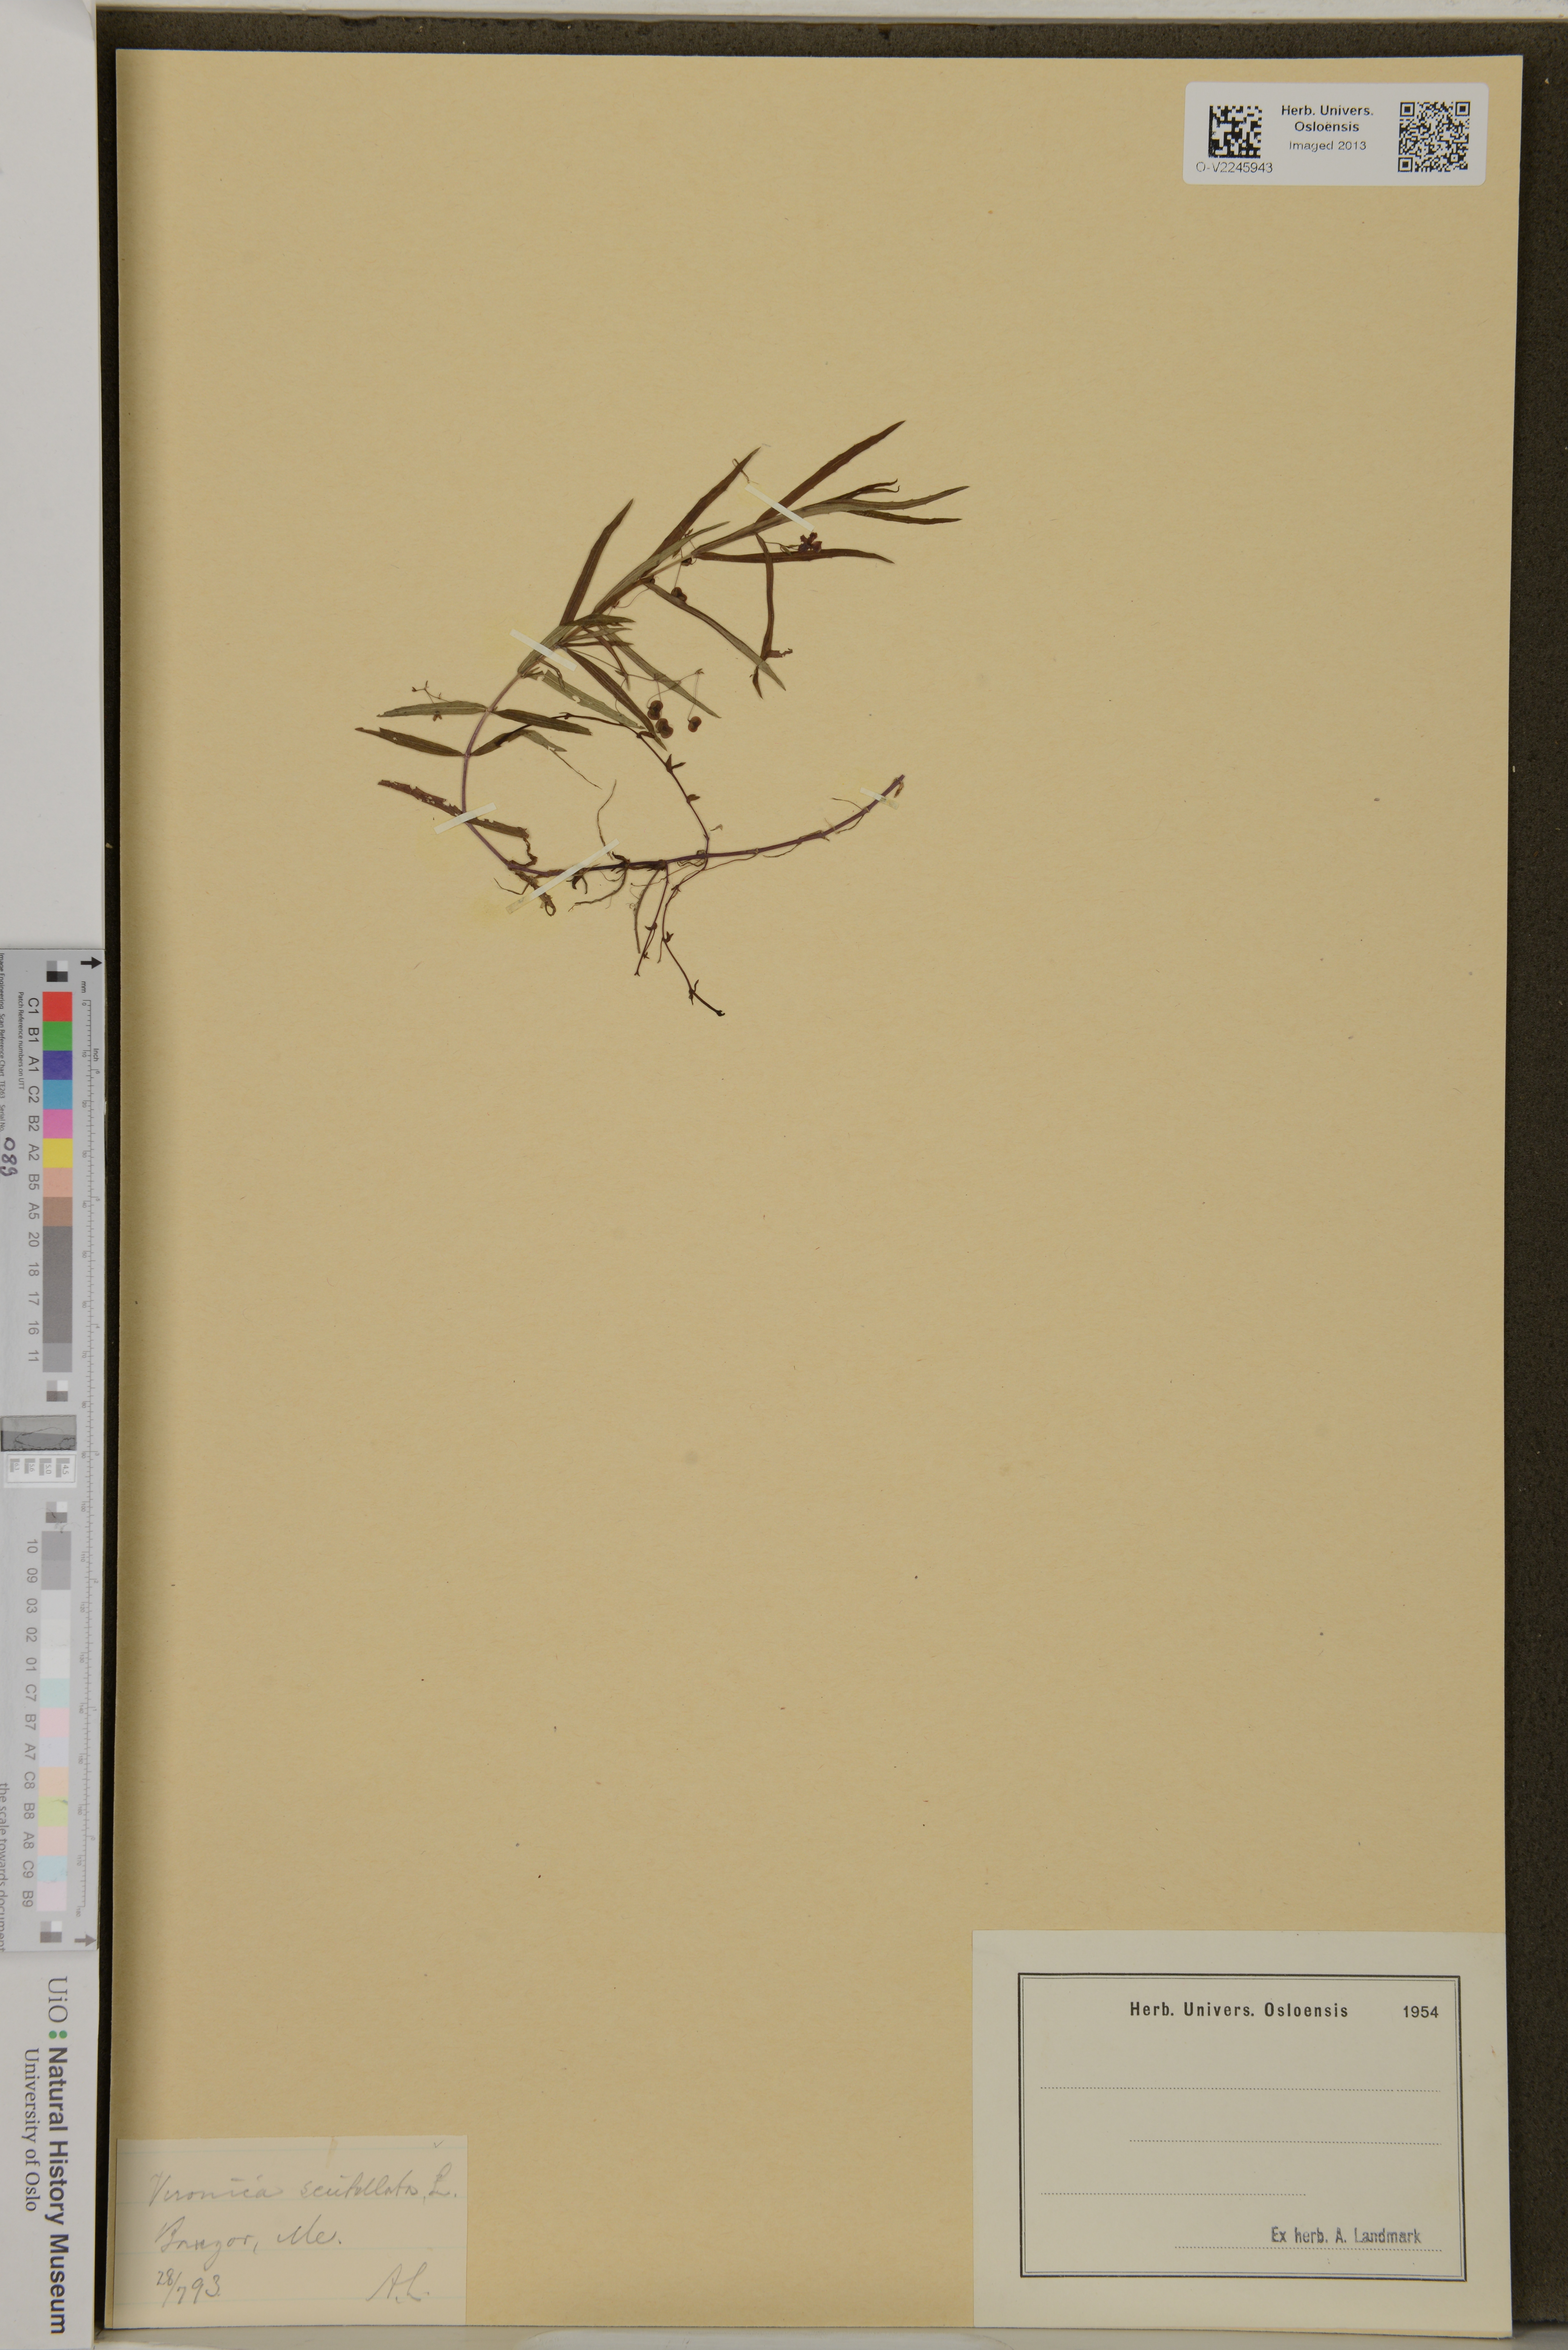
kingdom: Plantae
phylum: Tracheophyta
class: Magnoliopsida
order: Lamiales
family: Plantaginaceae
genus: Veronica
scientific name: Veronica scutellata
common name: Marsh speedwell
